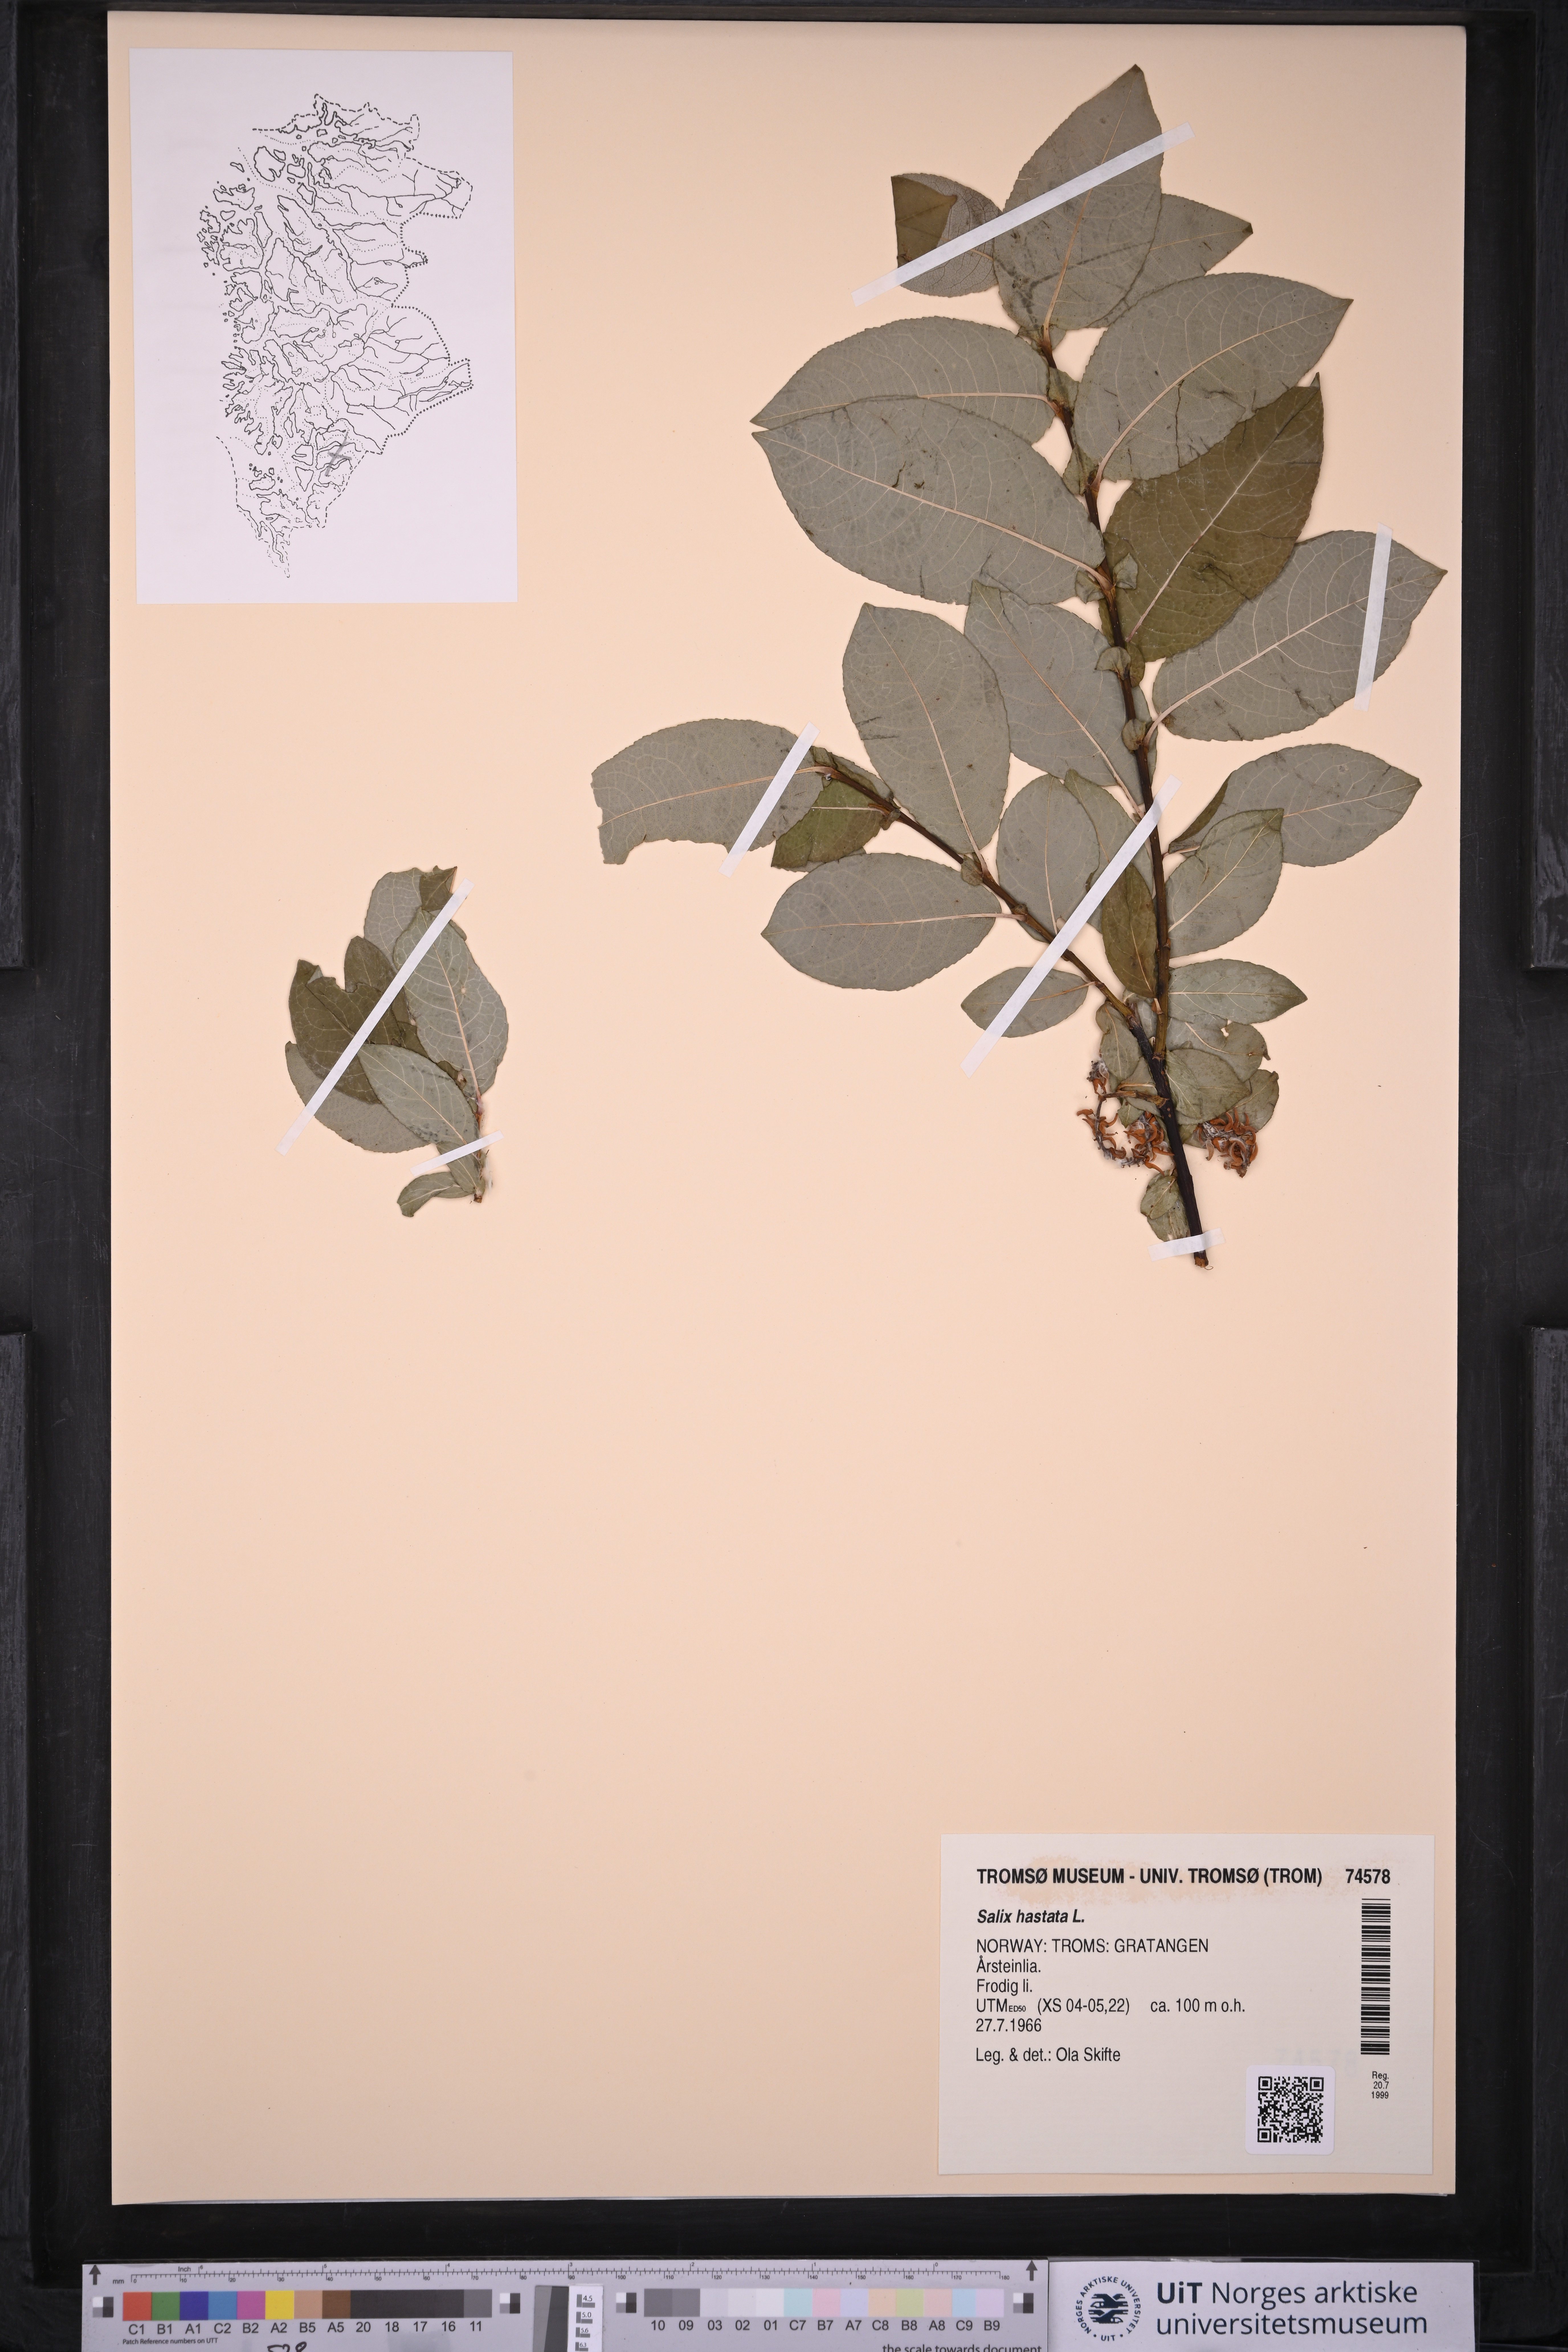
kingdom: Plantae
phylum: Tracheophyta
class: Magnoliopsida
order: Malpighiales
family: Salicaceae
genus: Salix
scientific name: Salix hastata
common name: Halberd willow
